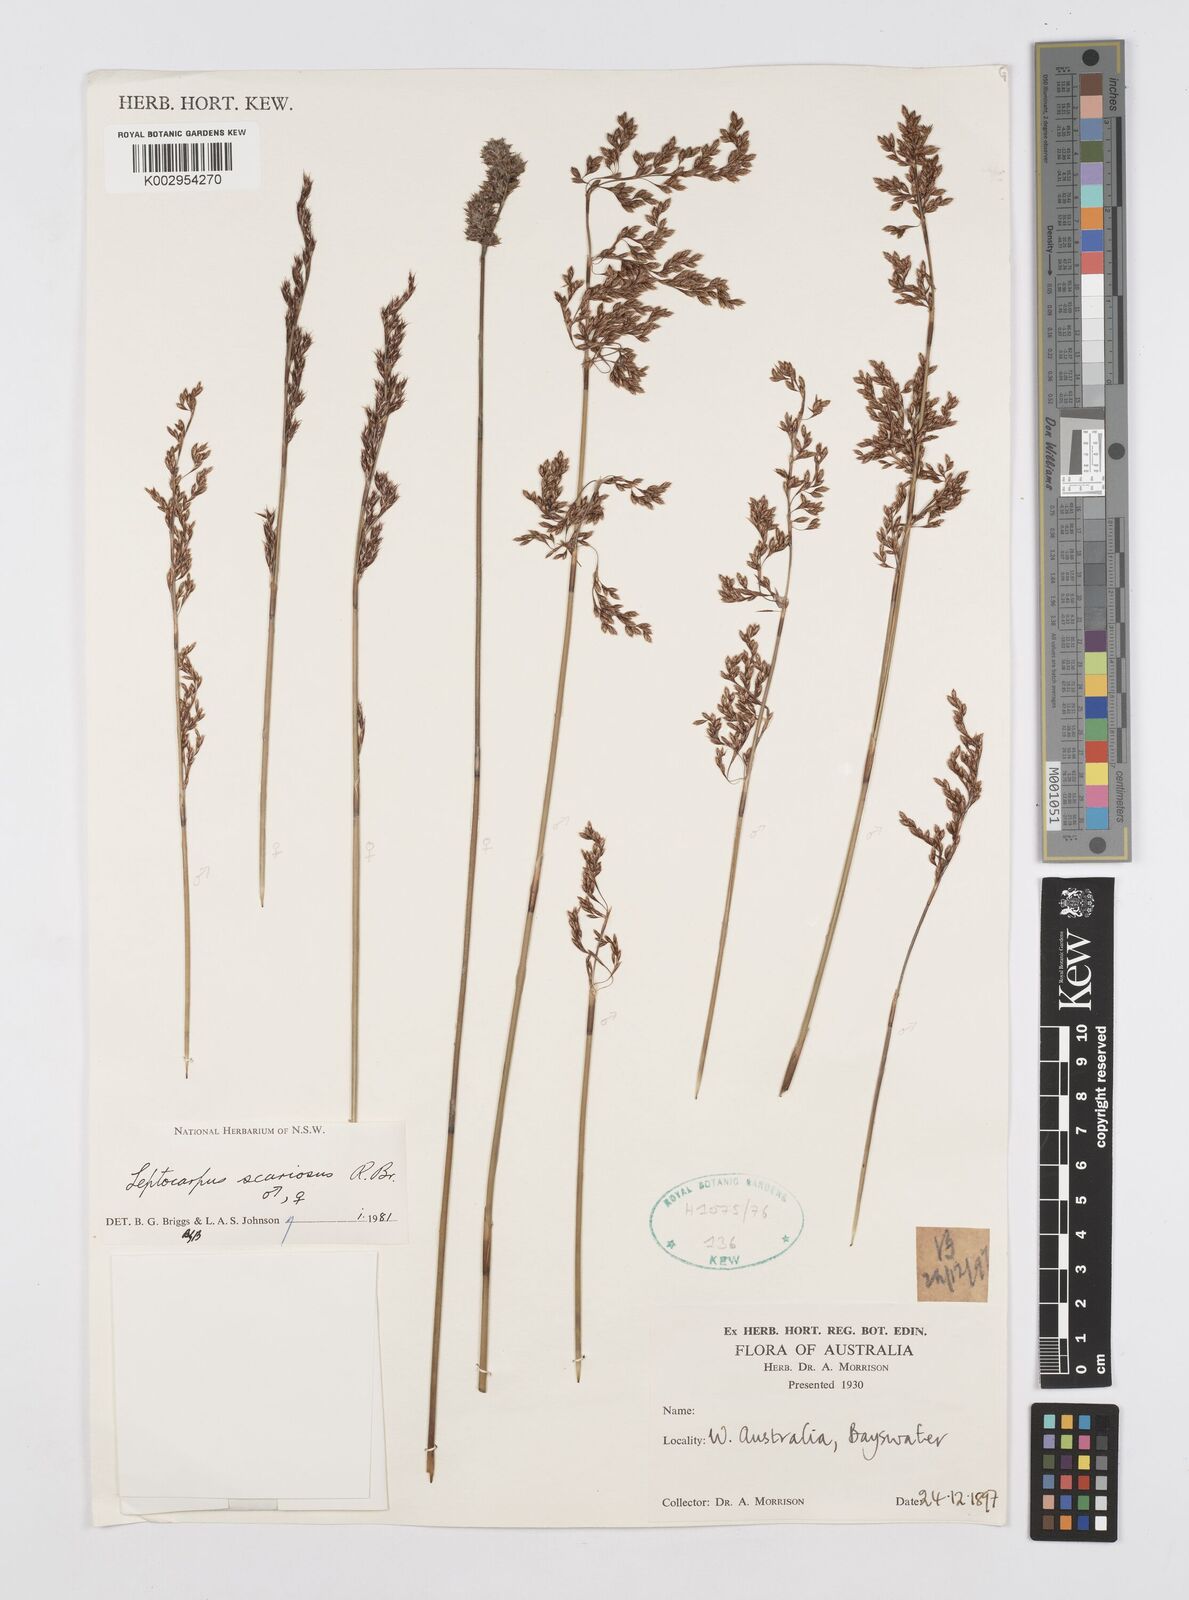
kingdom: Plantae
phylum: Tracheophyta
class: Liliopsida
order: Poales
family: Restionaceae
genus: Leptocarpus
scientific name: Leptocarpus scariosus
